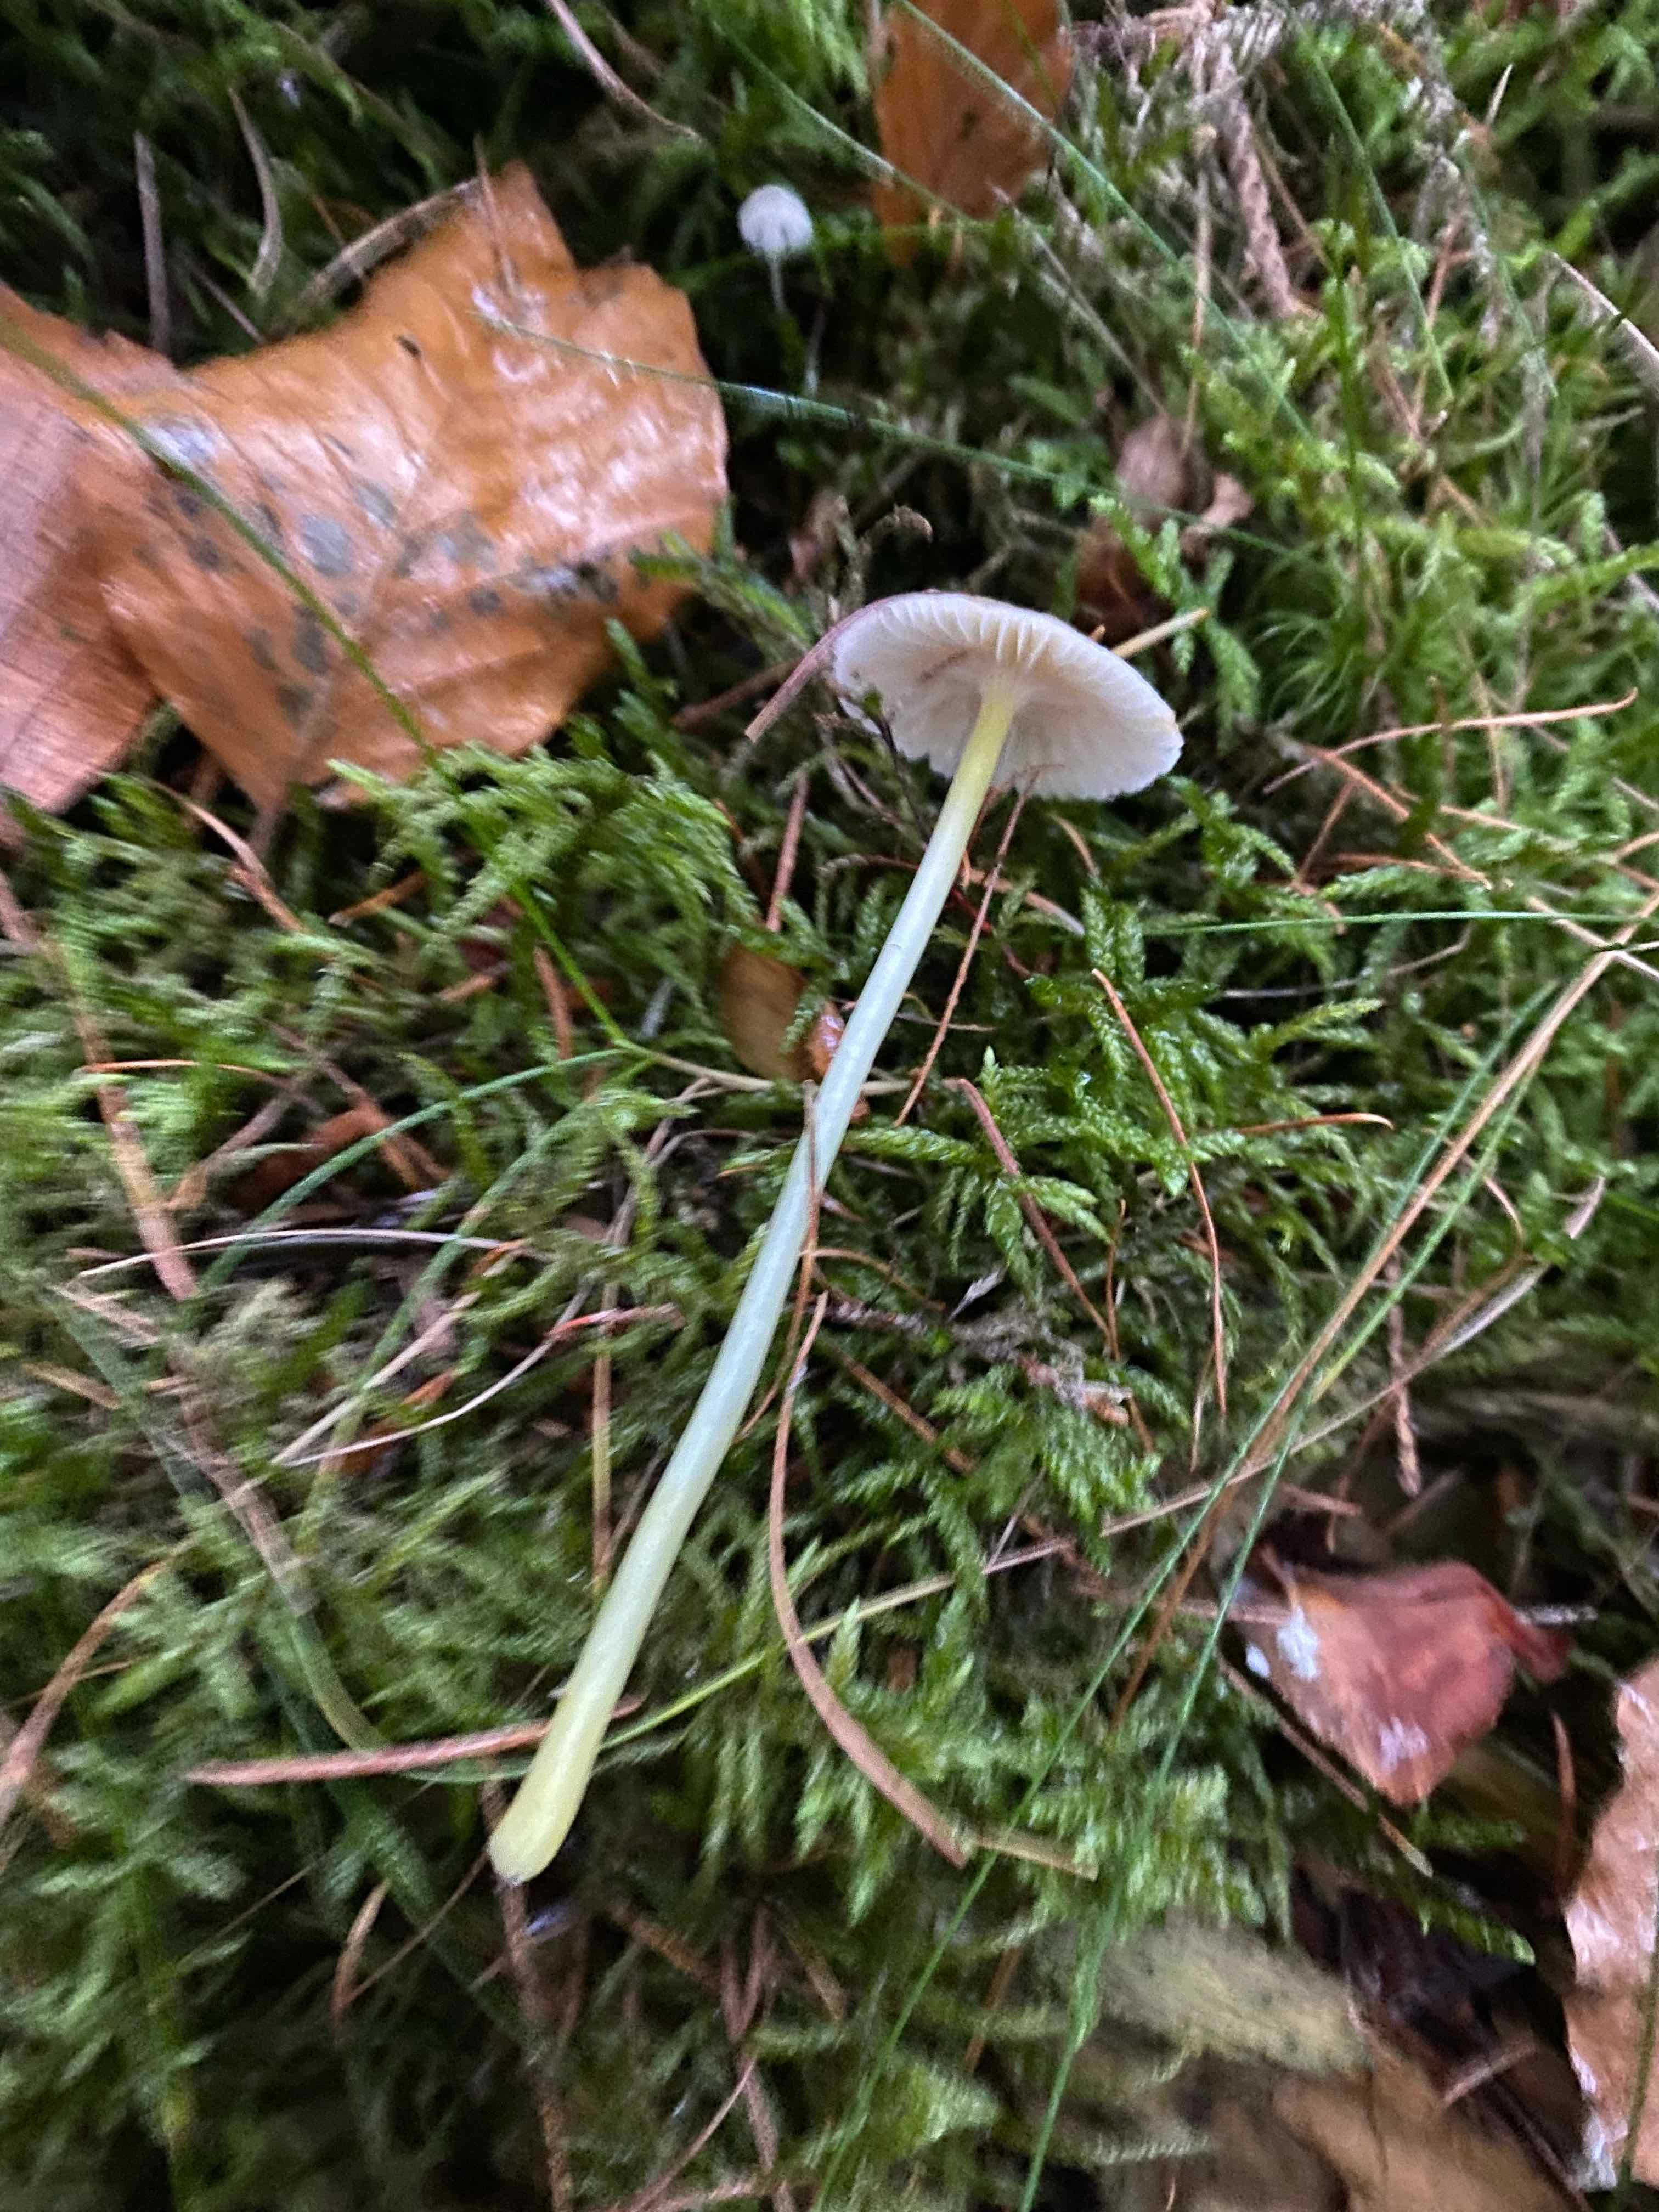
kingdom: Fungi
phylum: Basidiomycota
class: Agaricomycetes
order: Agaricales
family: Mycenaceae
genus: Mycena
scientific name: Mycena epipterygia
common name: gulstokket huesvamp
